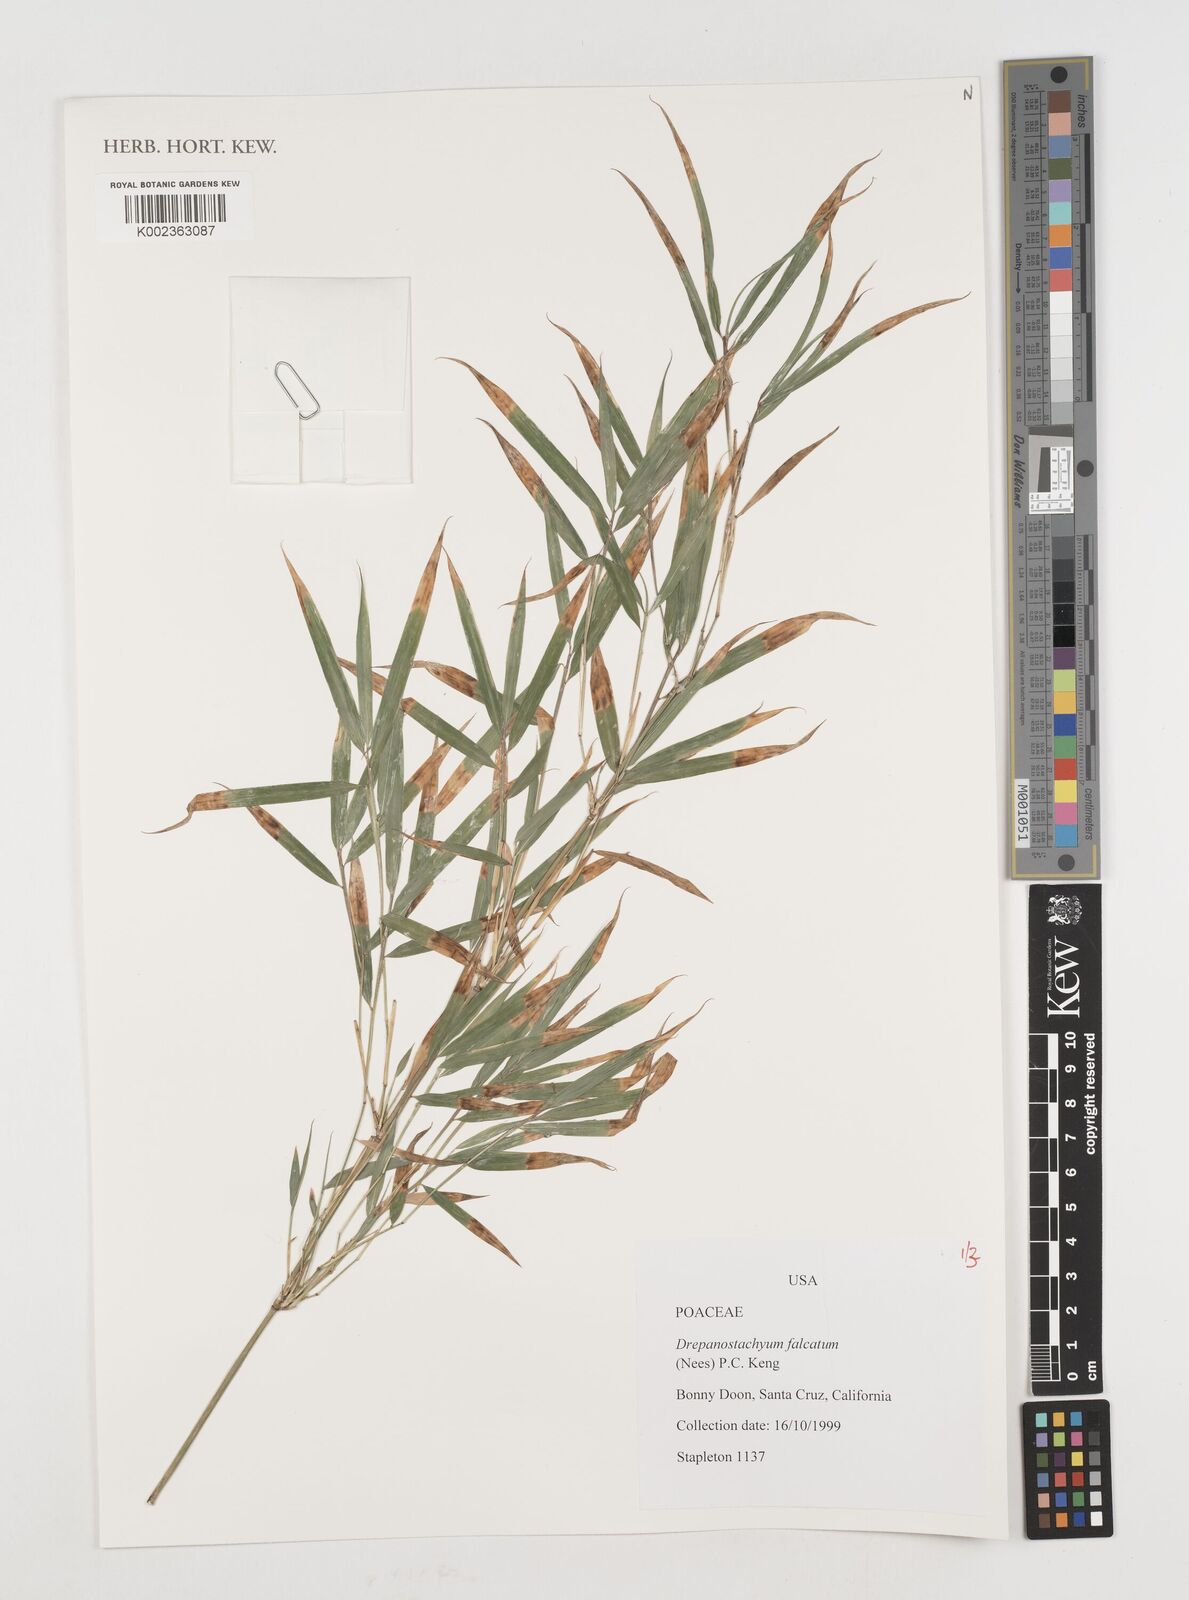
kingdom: Plantae
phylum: Tracheophyta
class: Liliopsida
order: Poales
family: Poaceae
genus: Drepanostachyum
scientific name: Drepanostachyum falcatum
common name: Himalayan bamboo
